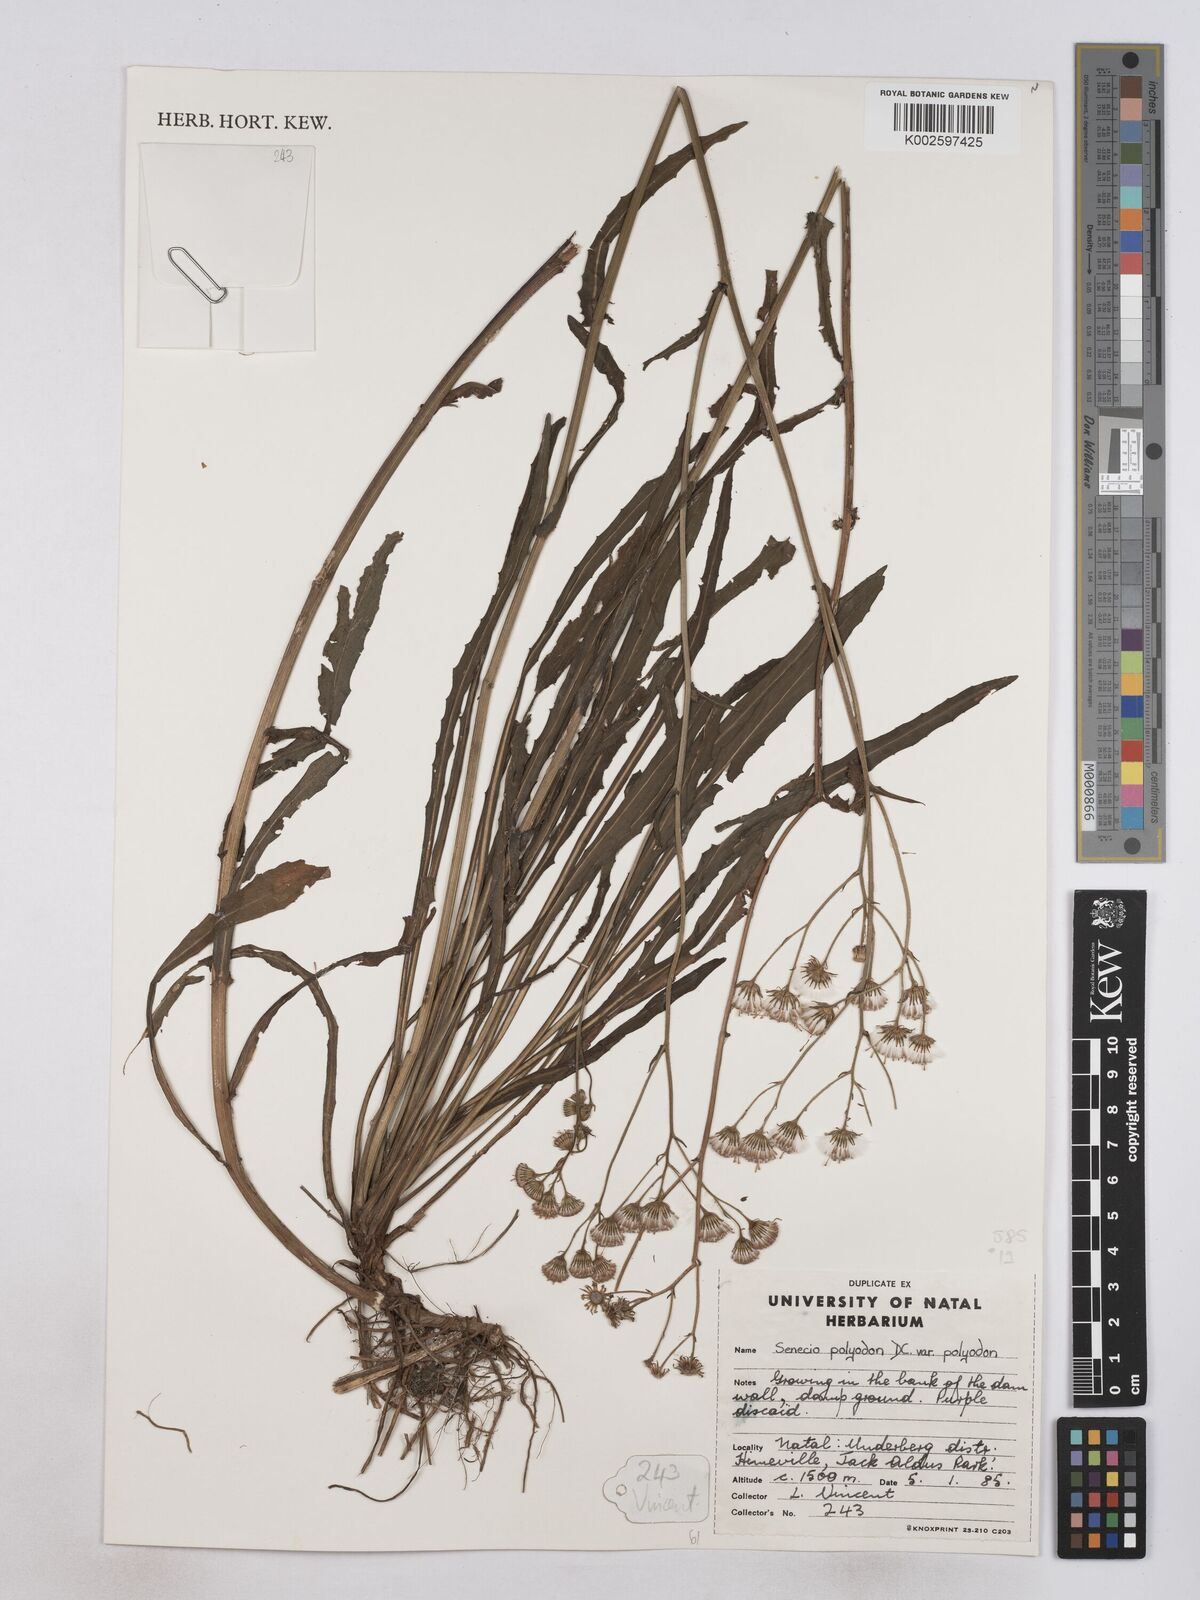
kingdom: Plantae
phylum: Tracheophyta
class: Magnoliopsida
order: Asterales
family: Asteraceae
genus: Senecio
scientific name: Senecio polyodon
